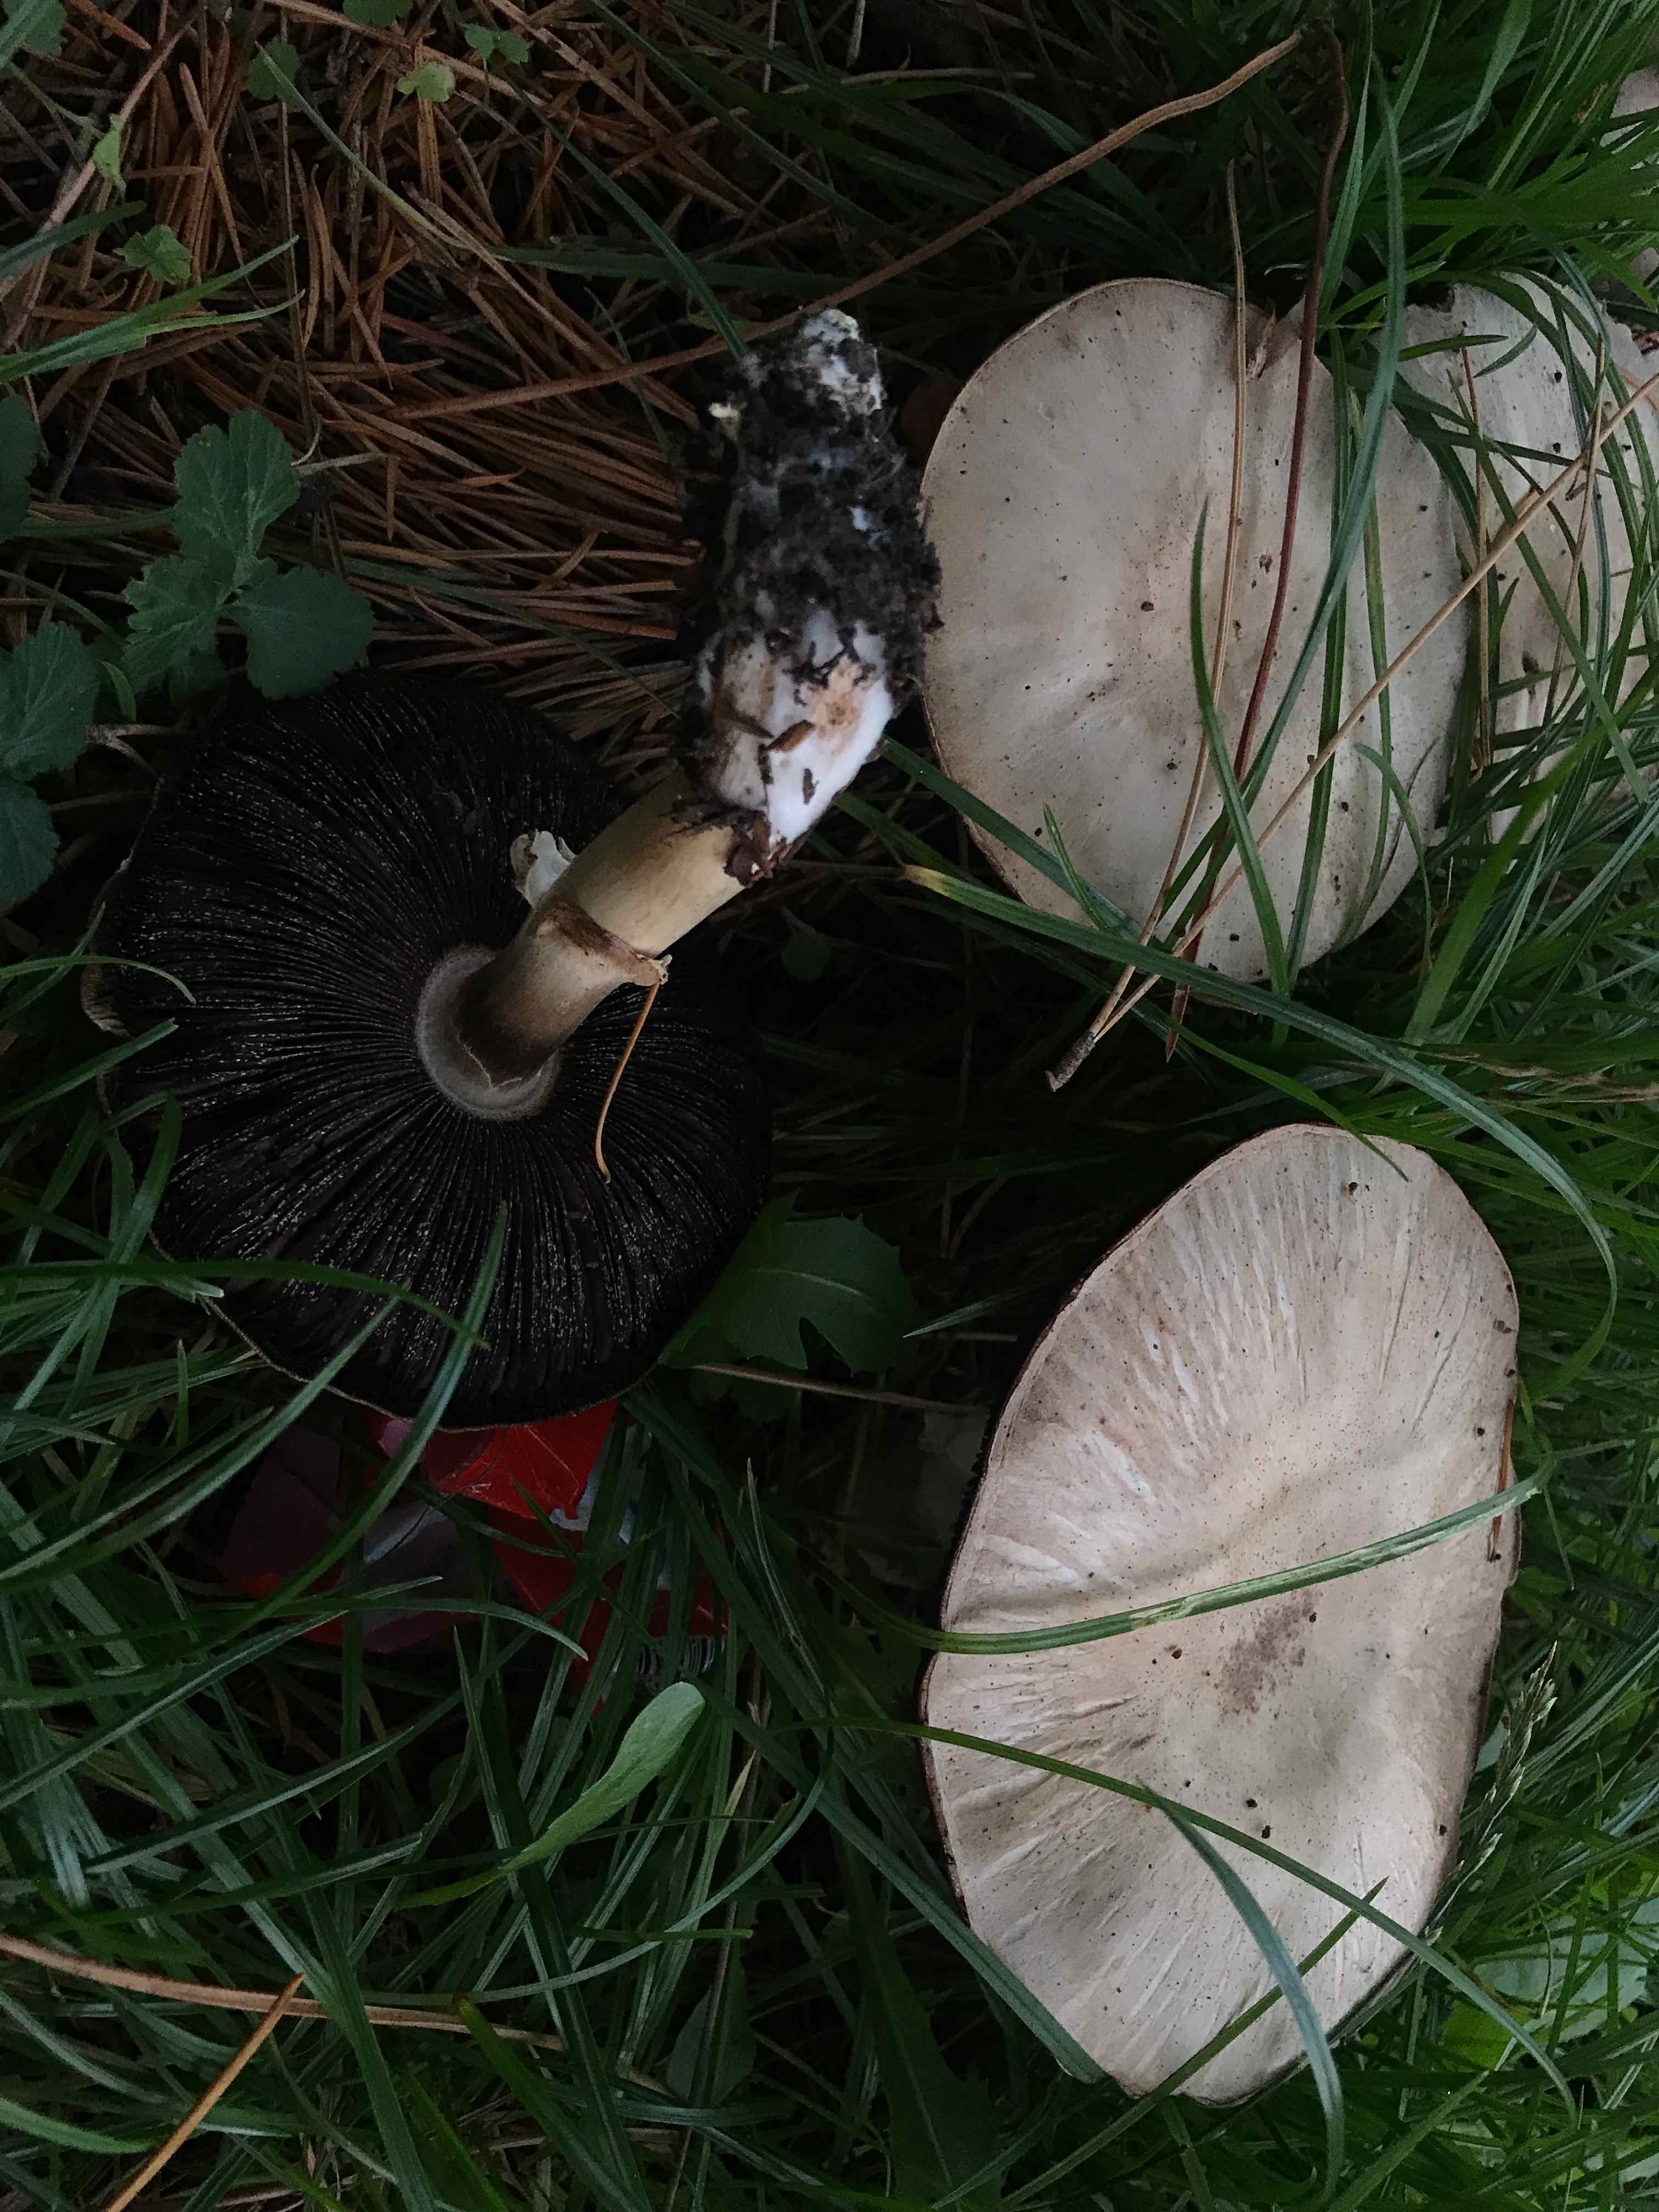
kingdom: Fungi
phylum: Basidiomycota
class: Agaricomycetes
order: Agaricales
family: Agaricaceae
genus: Agaricus
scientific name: Agaricus xanthodermus
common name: karbol-champignon
